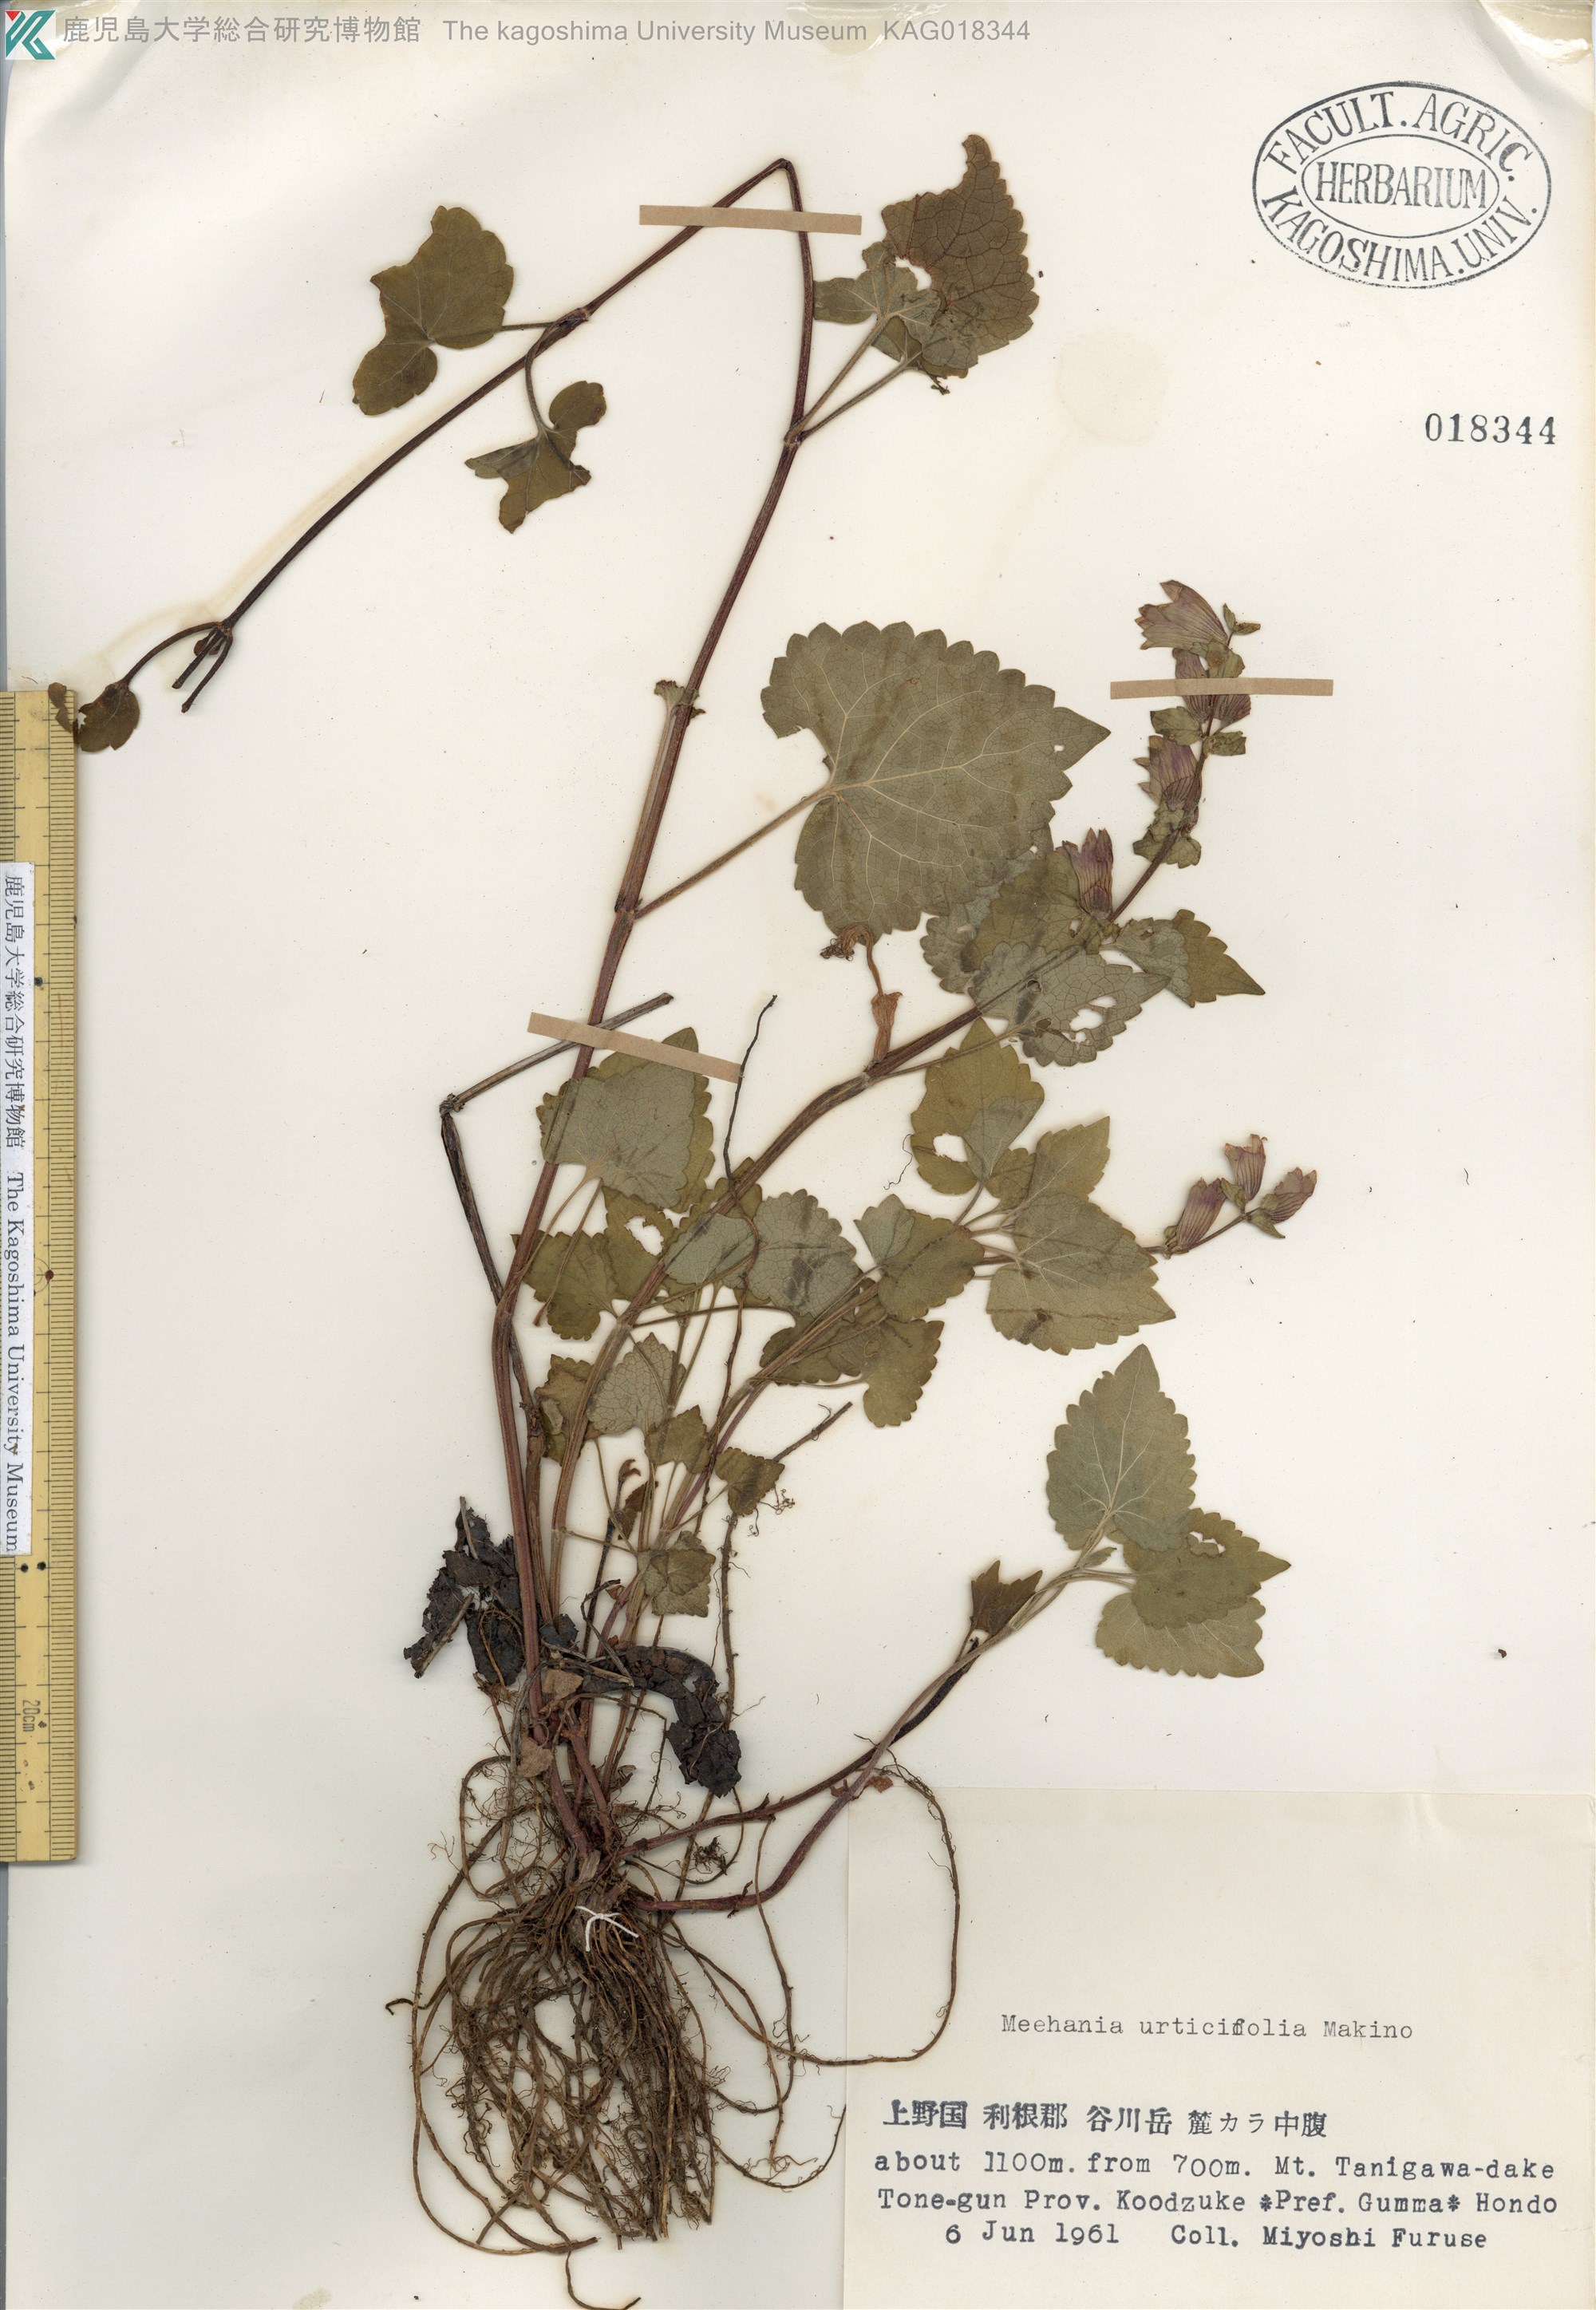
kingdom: Plantae
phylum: Tracheophyta
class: Magnoliopsida
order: Lamiales
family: Lamiaceae
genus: Meehania
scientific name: Meehania urticifolia
